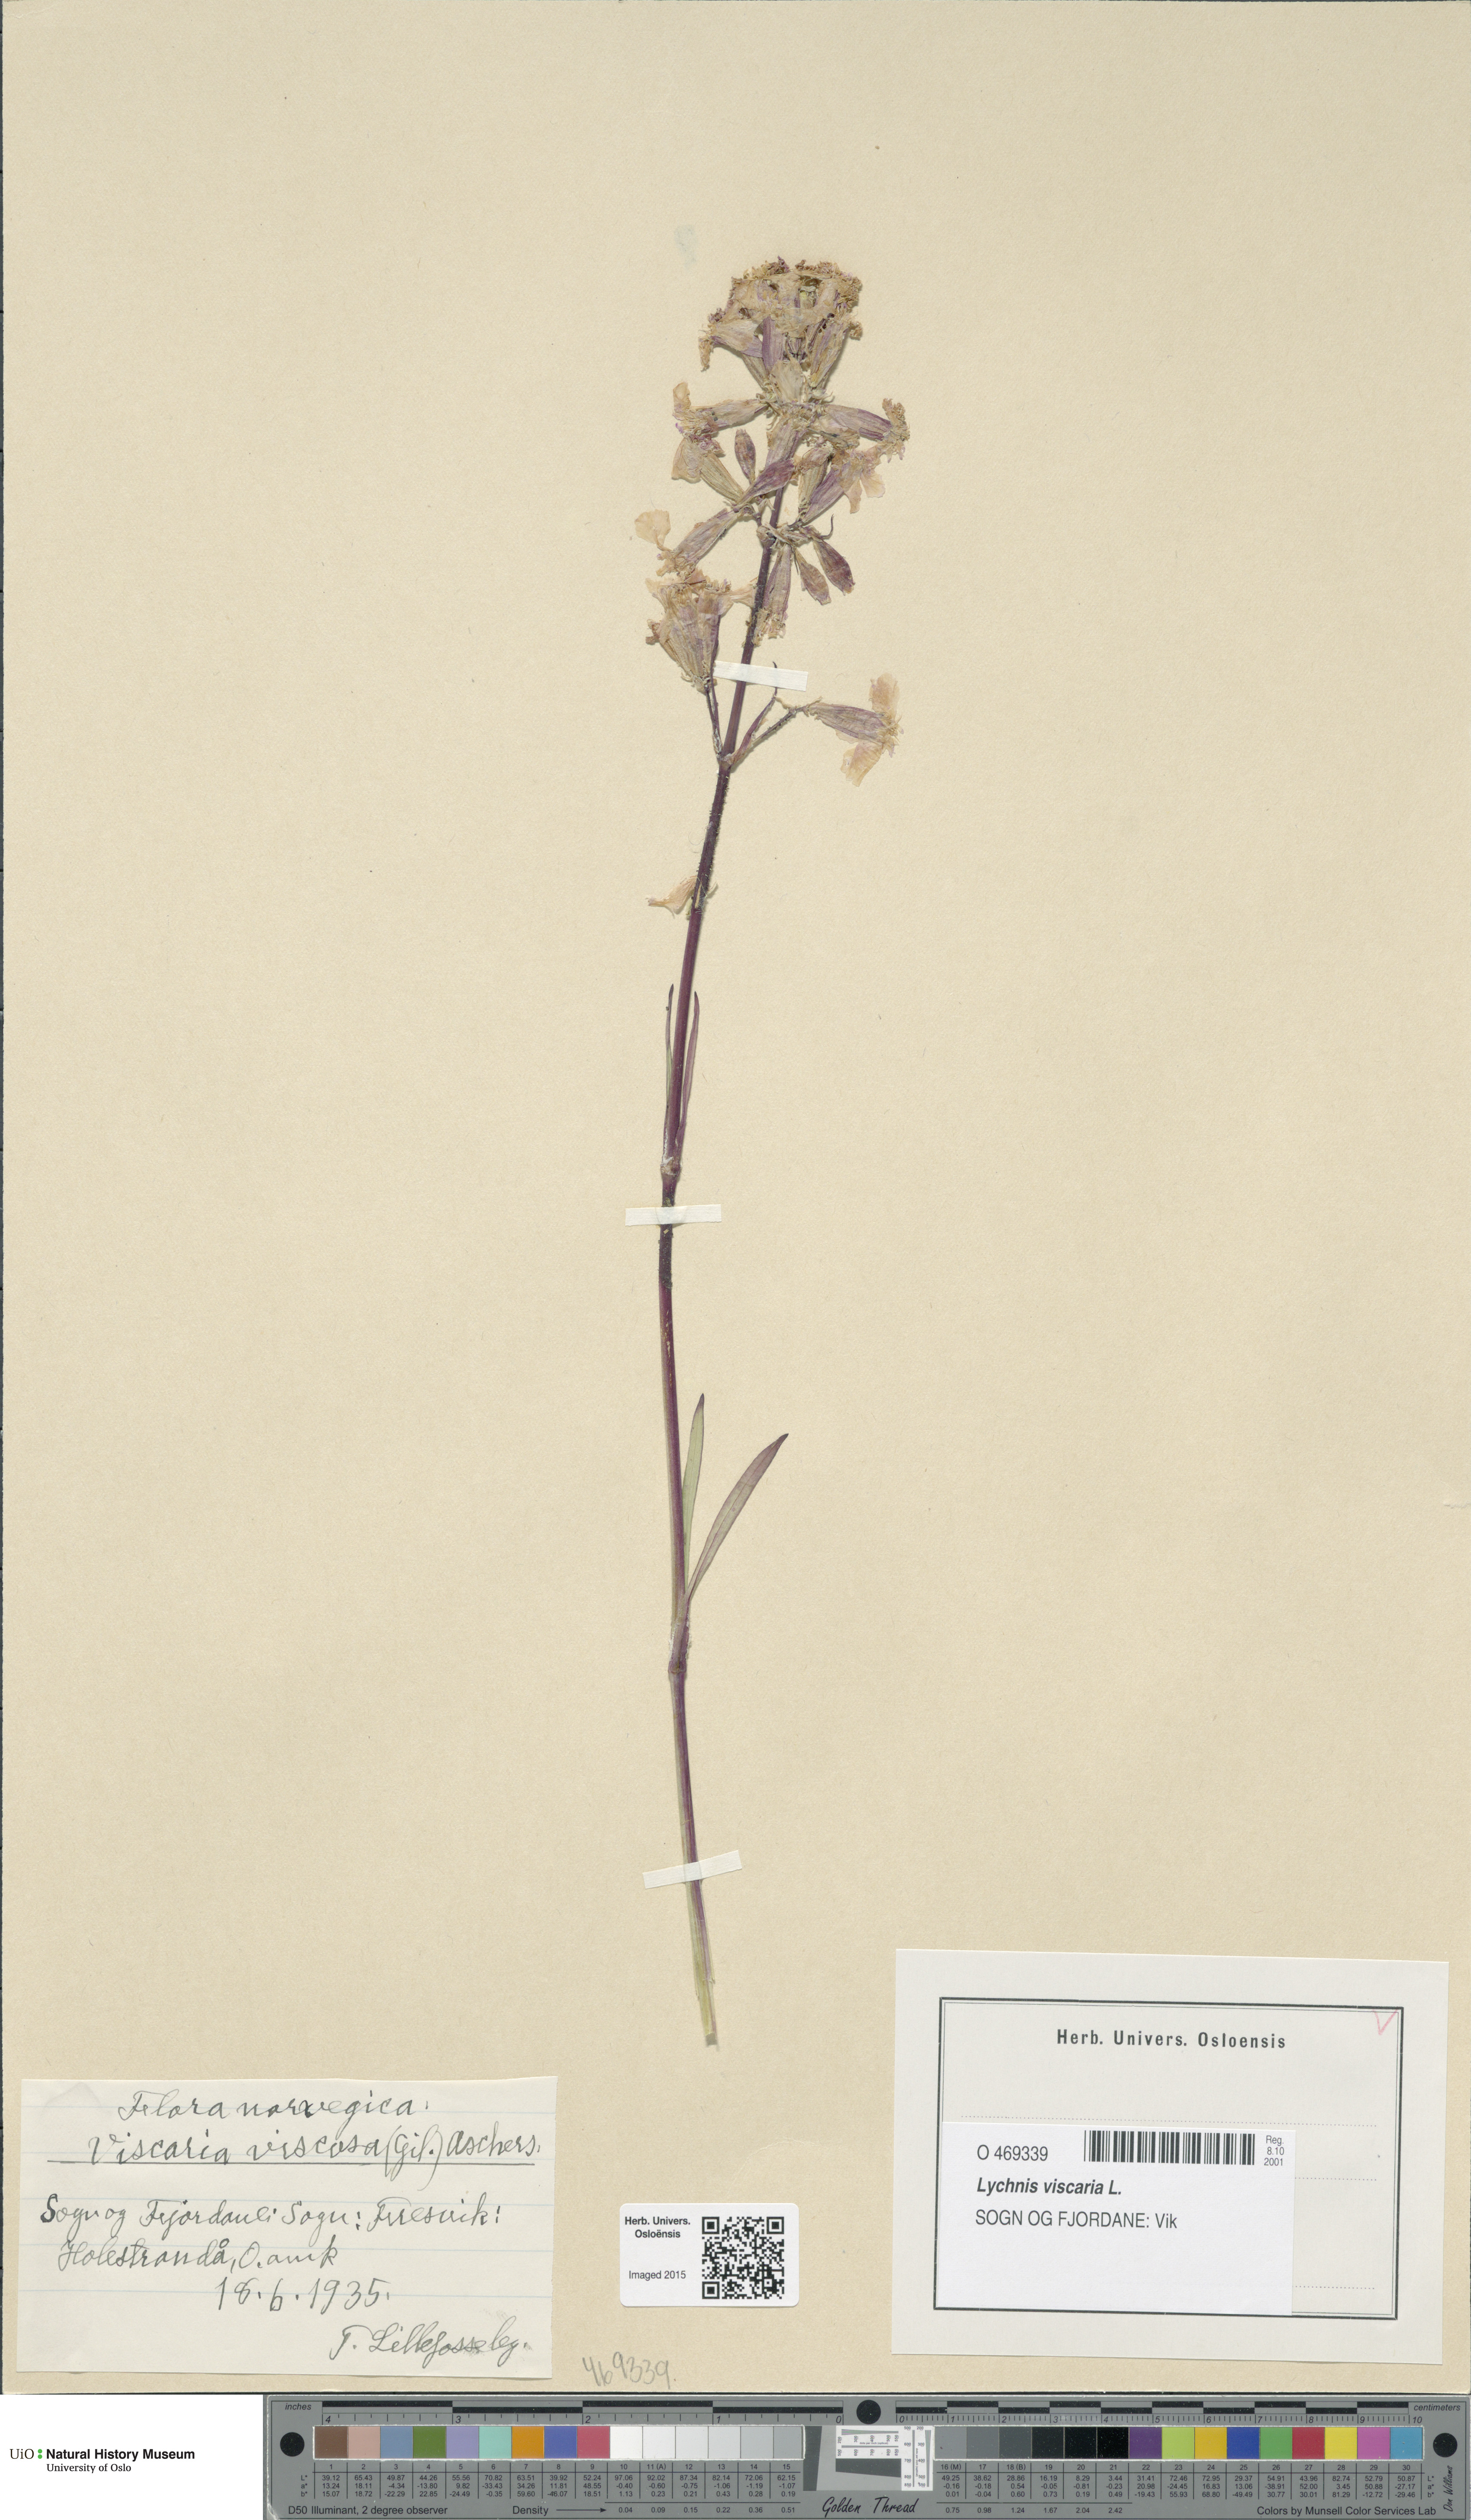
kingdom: Plantae
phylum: Tracheophyta
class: Magnoliopsida
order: Caryophyllales
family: Caryophyllaceae
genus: Viscaria
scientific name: Viscaria vulgaris
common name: Clammy campion
